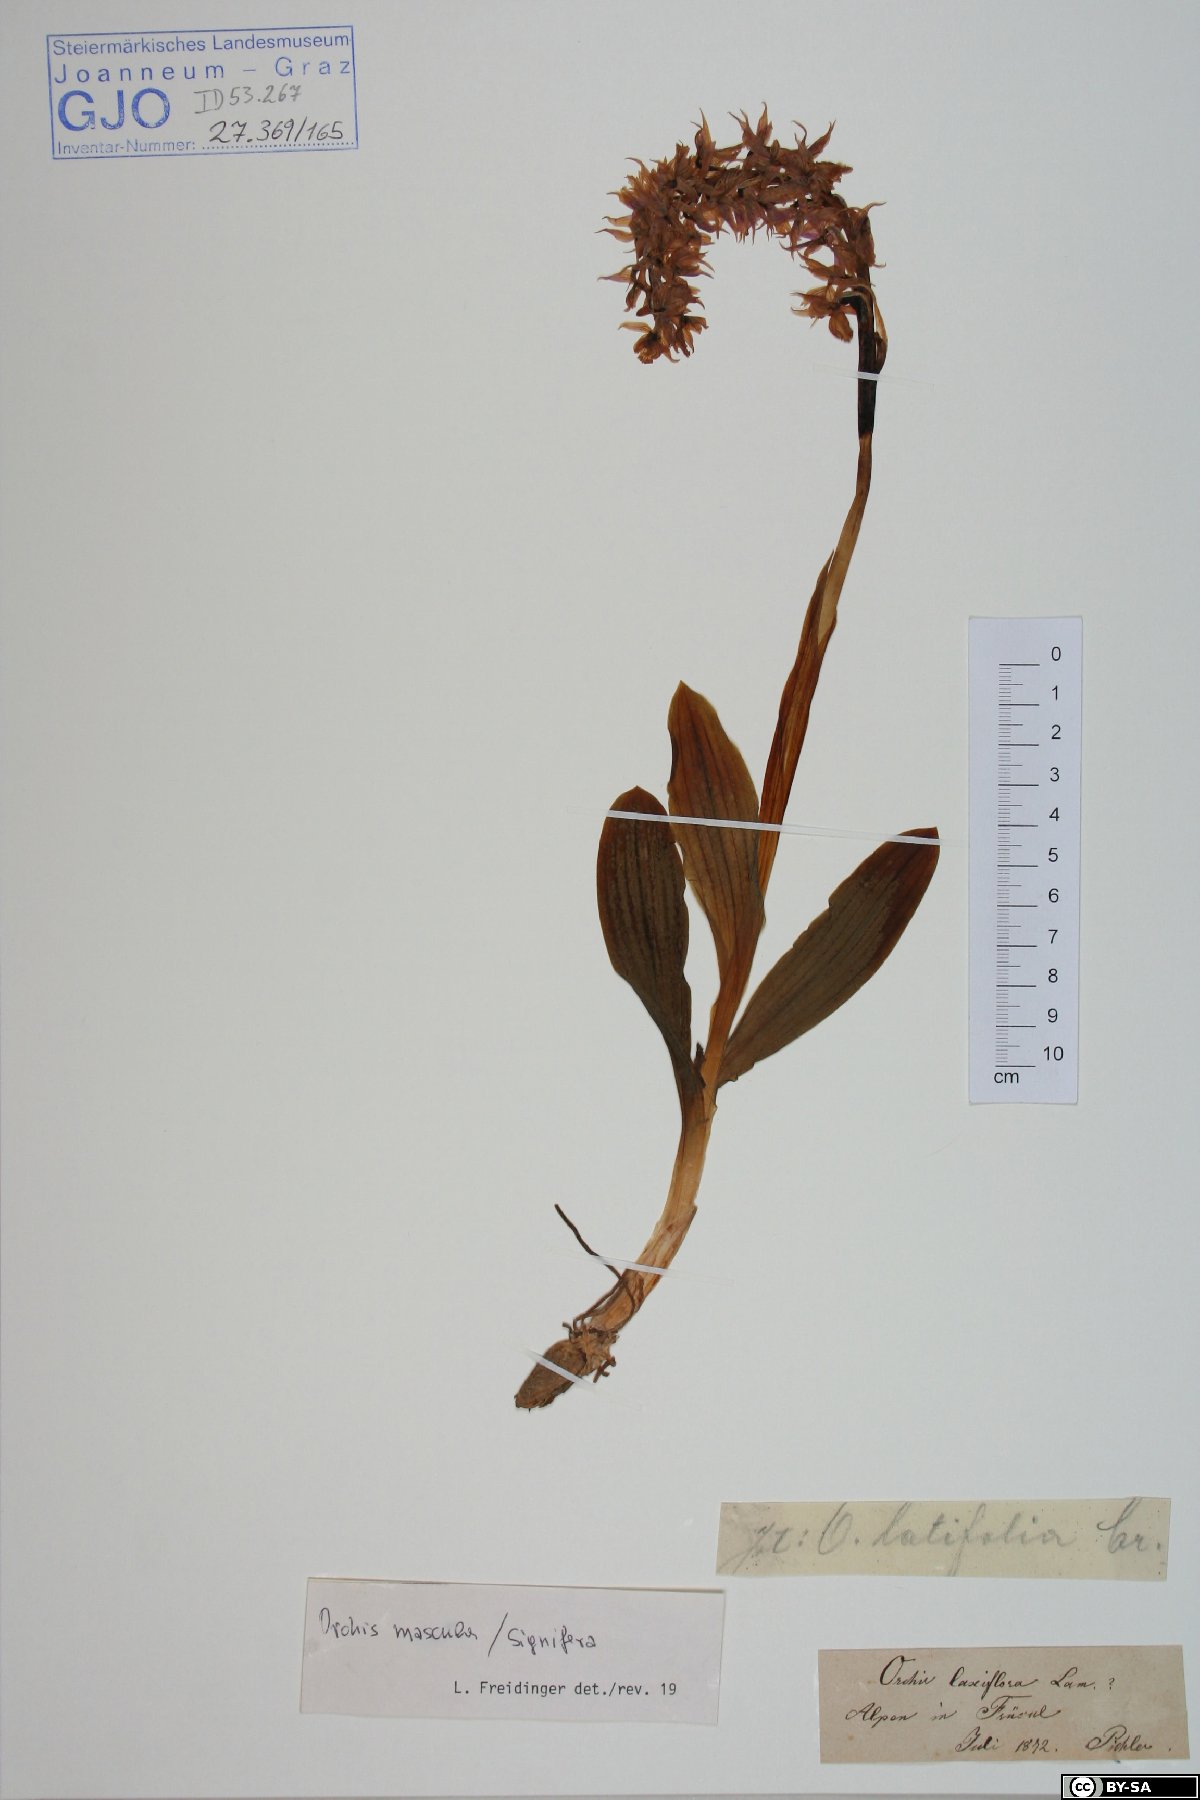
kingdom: Plantae
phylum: Tracheophyta
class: Liliopsida
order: Asparagales
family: Orchidaceae
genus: Orchis
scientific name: Orchis mascula
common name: Early-purple orchid
